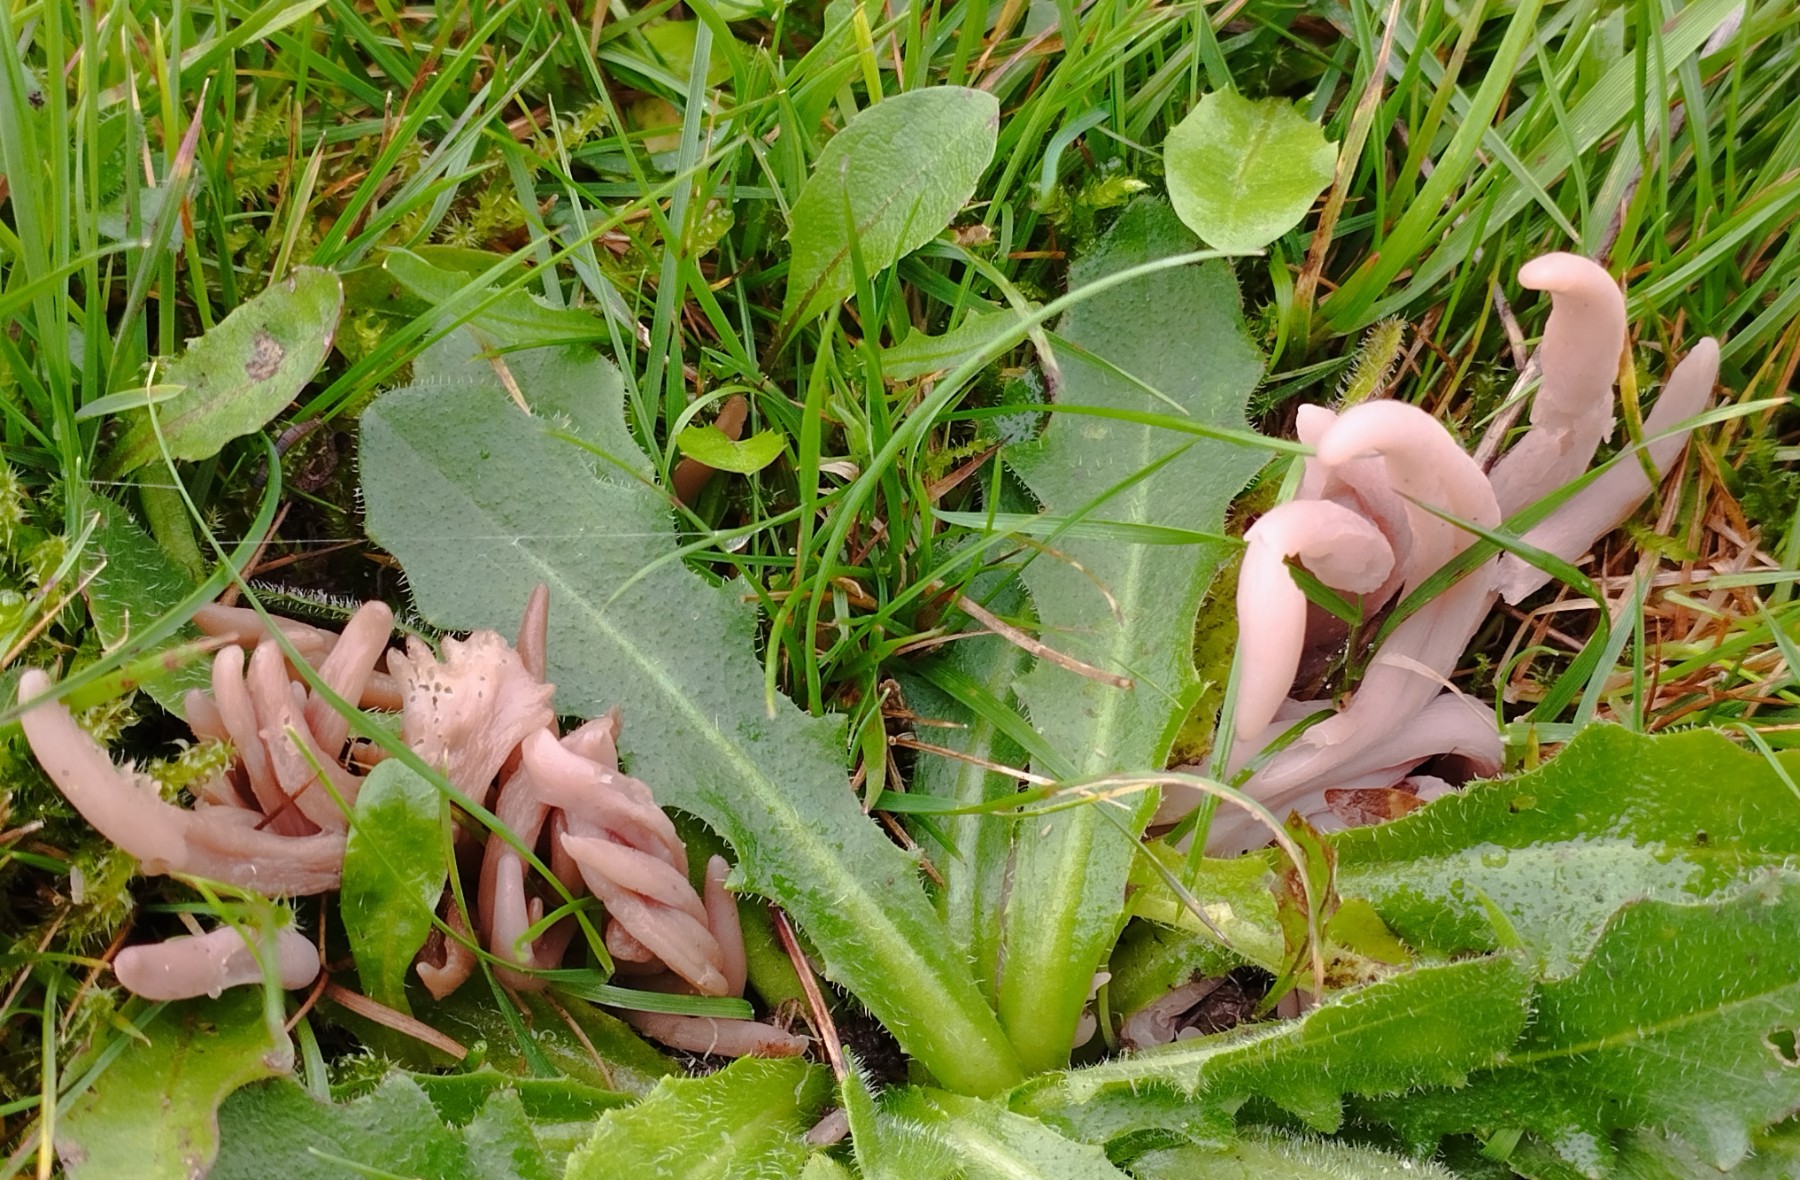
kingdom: Fungi
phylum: Basidiomycota
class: Agaricomycetes
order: Agaricales
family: Clavariaceae
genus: Clavaria
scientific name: Clavaria fumosa
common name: røggrå køllesvamp
